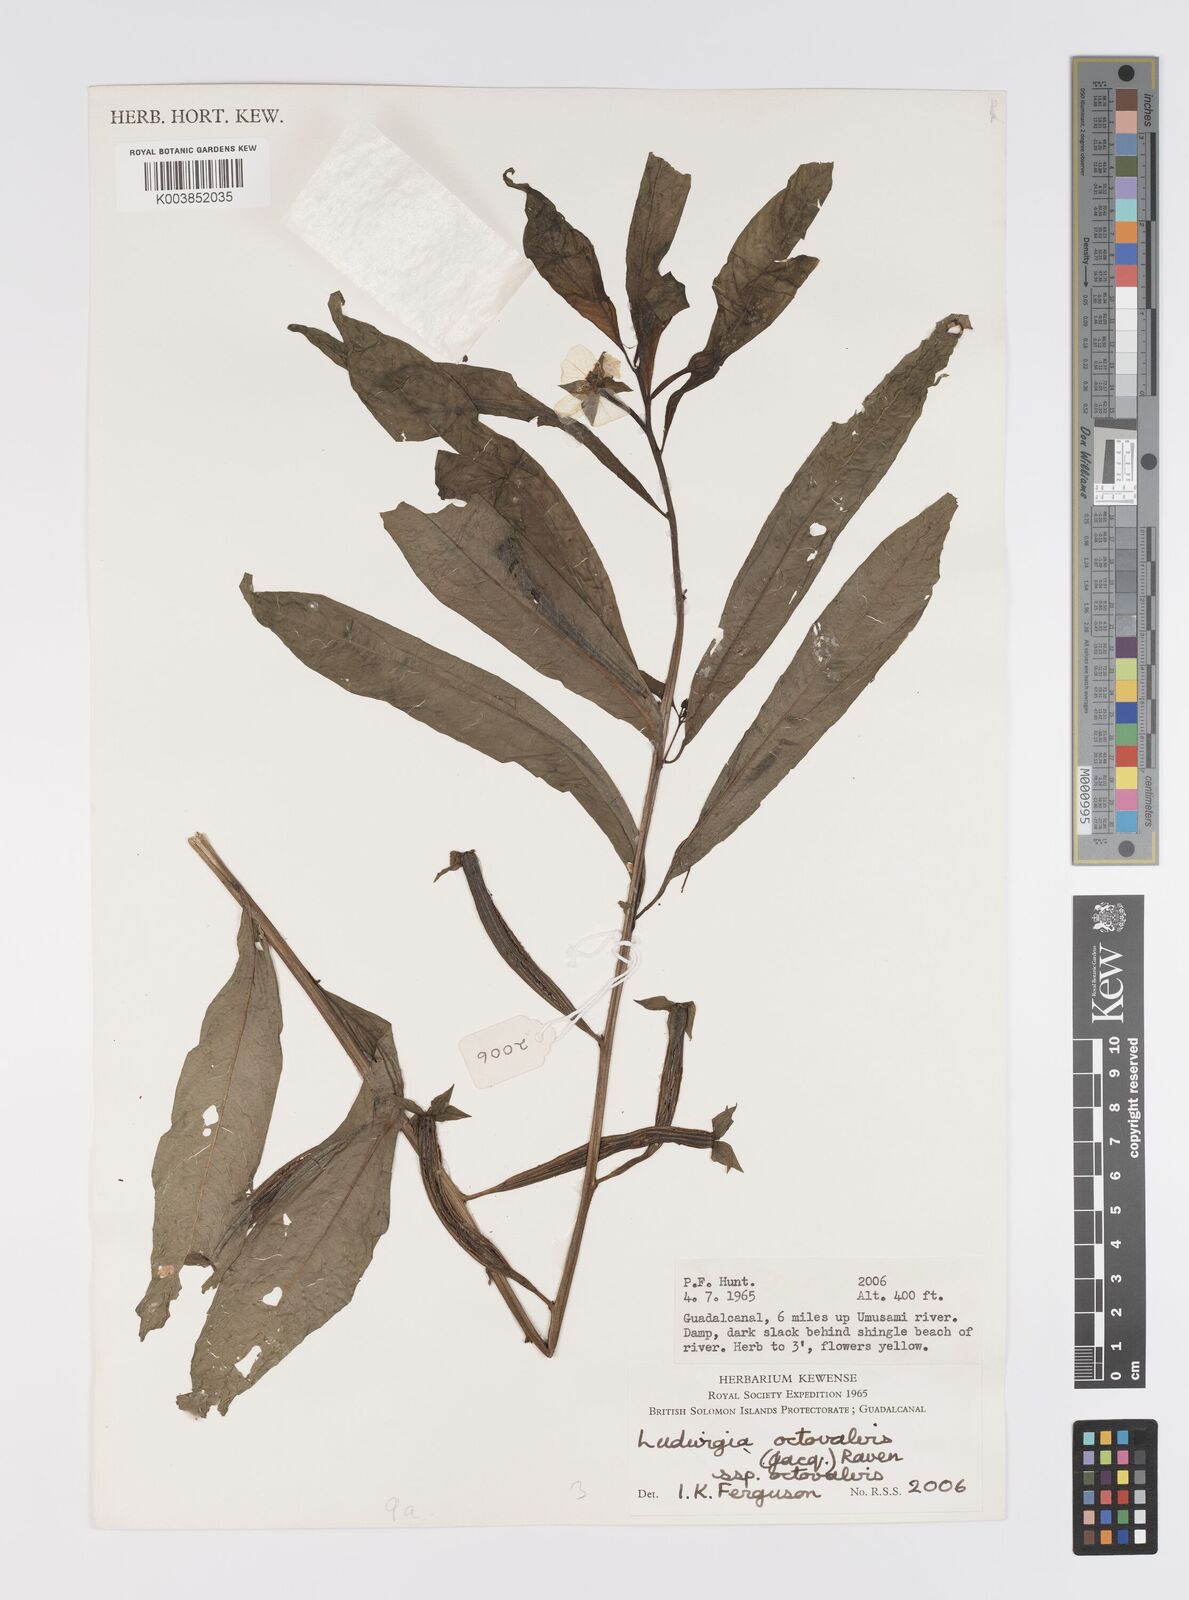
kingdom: Plantae
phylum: Tracheophyta
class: Magnoliopsida
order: Myrtales
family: Onagraceae
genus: Ludwigia
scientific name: Ludwigia octovalvis
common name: Water-primrose
